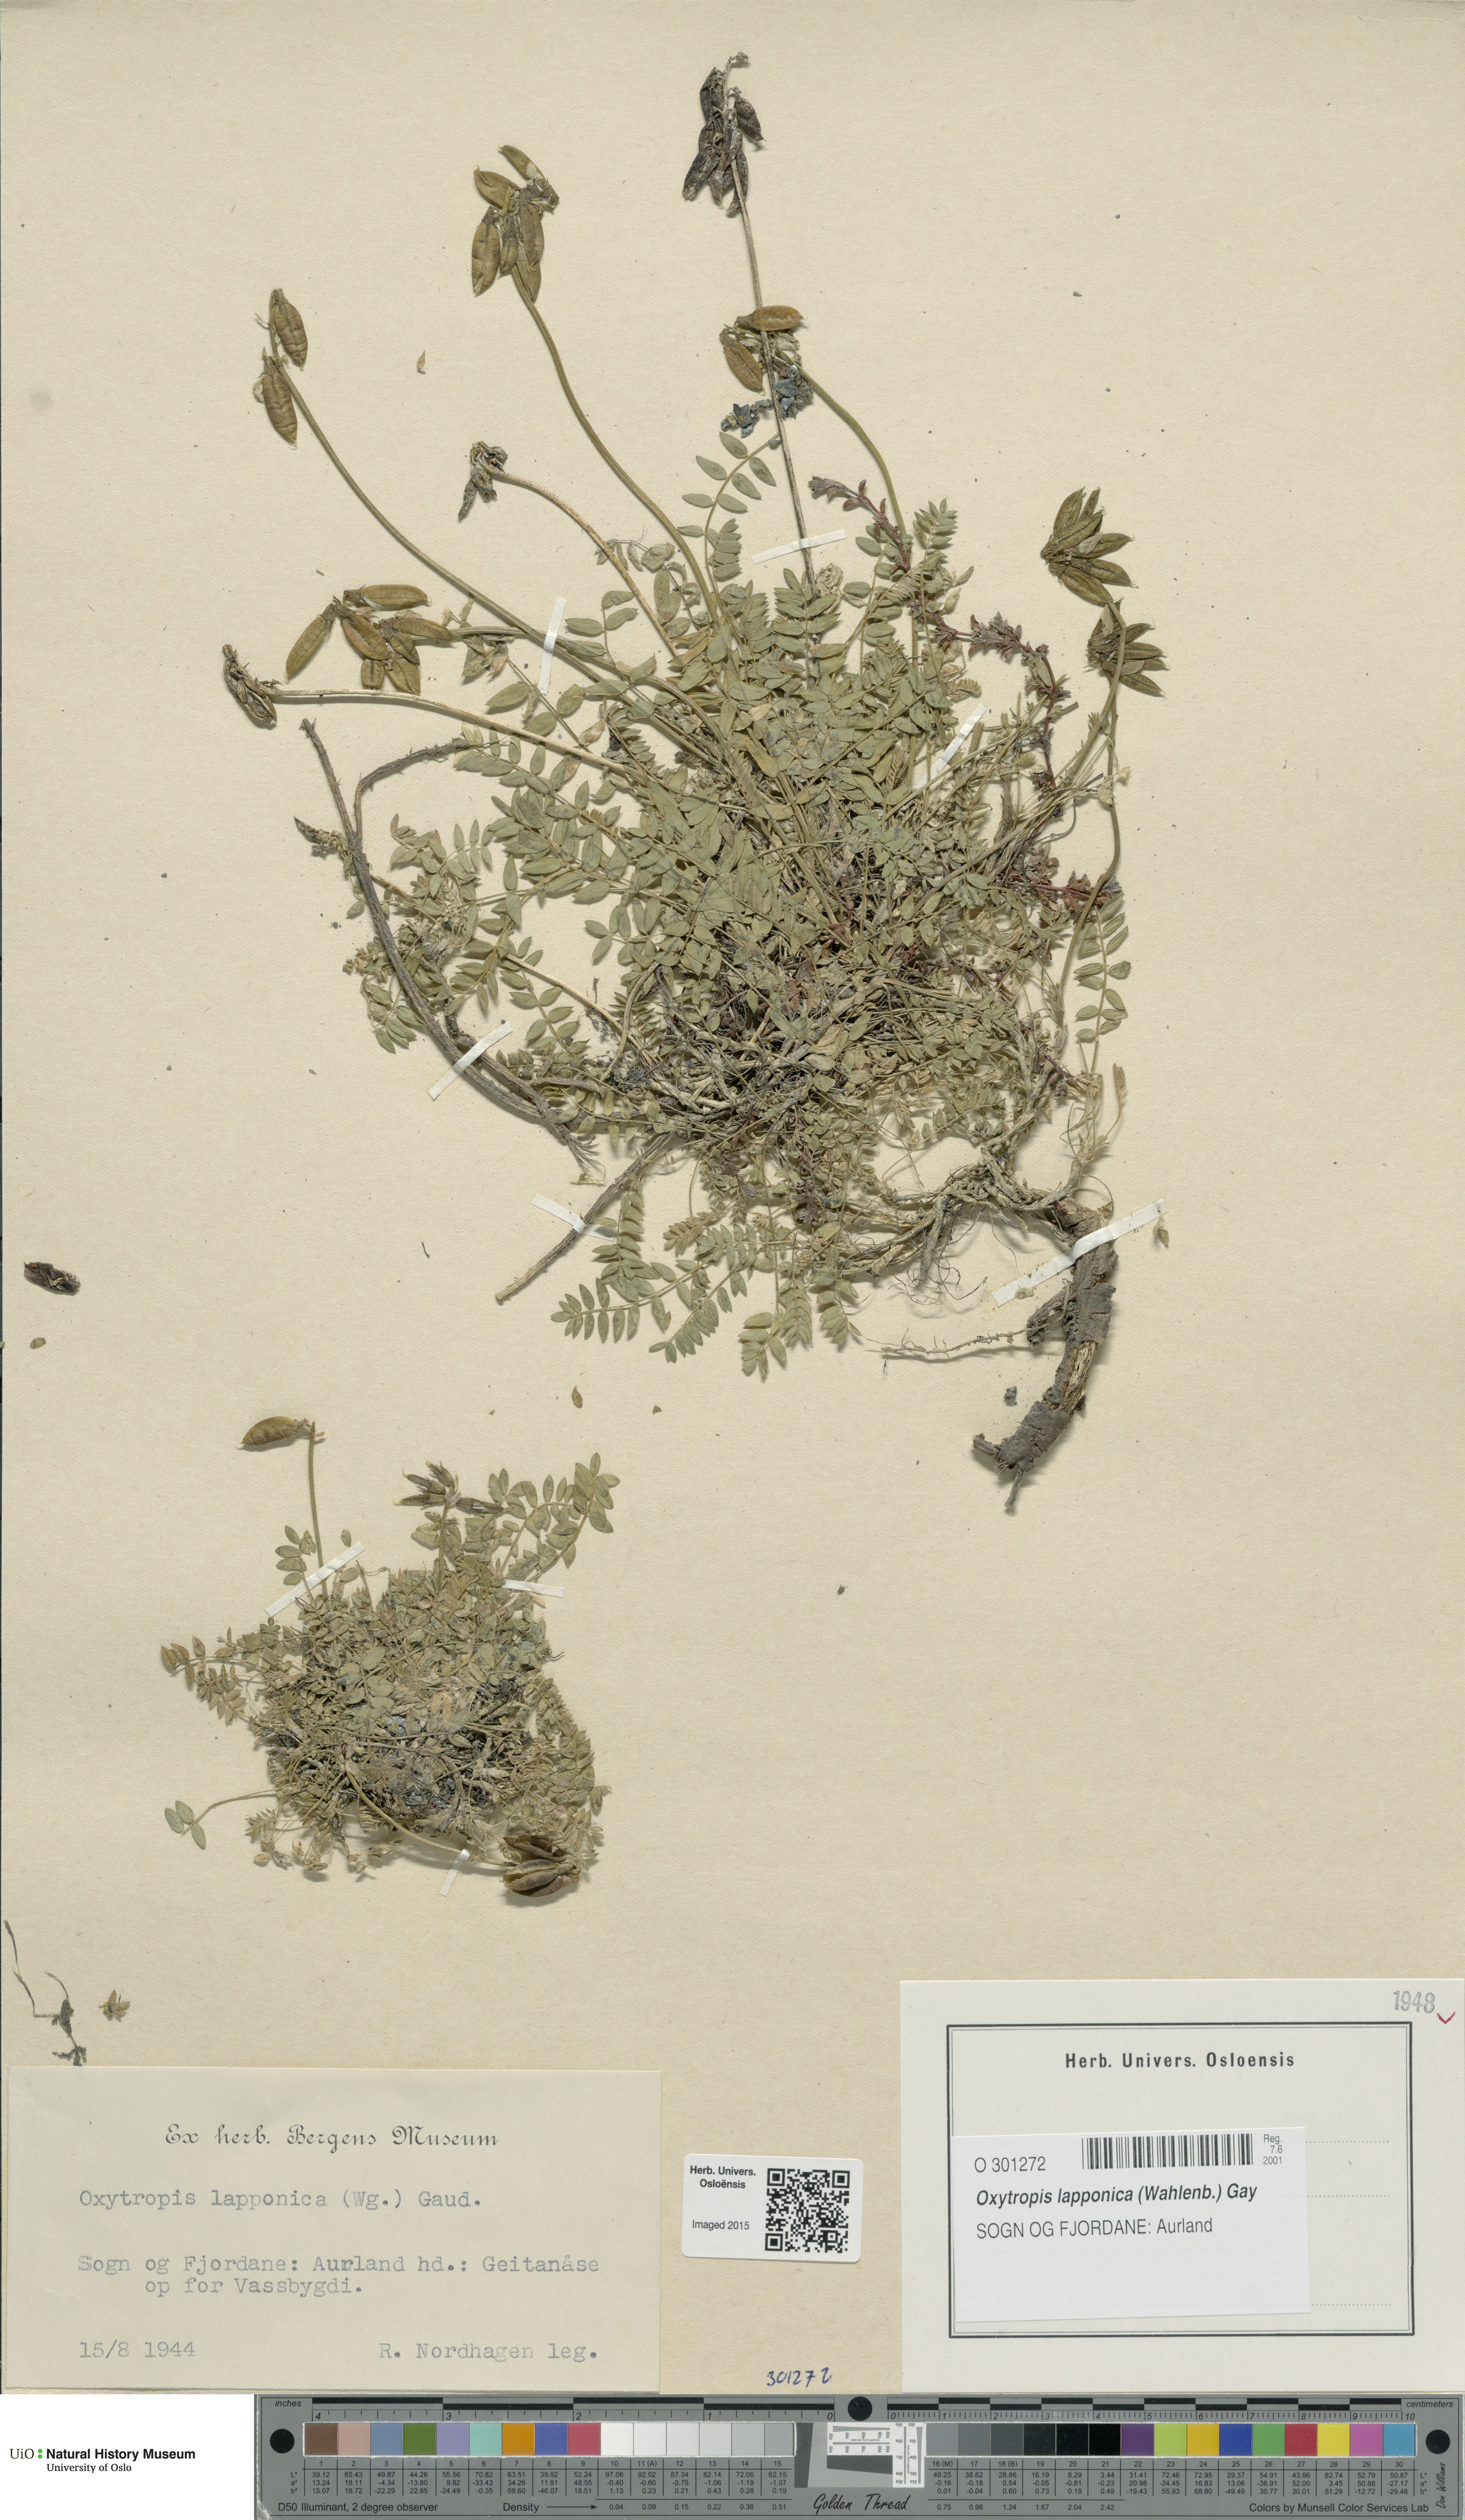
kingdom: Plantae
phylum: Tracheophyta
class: Magnoliopsida
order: Fabales
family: Fabaceae
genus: Oxytropis
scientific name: Oxytropis lapponica
